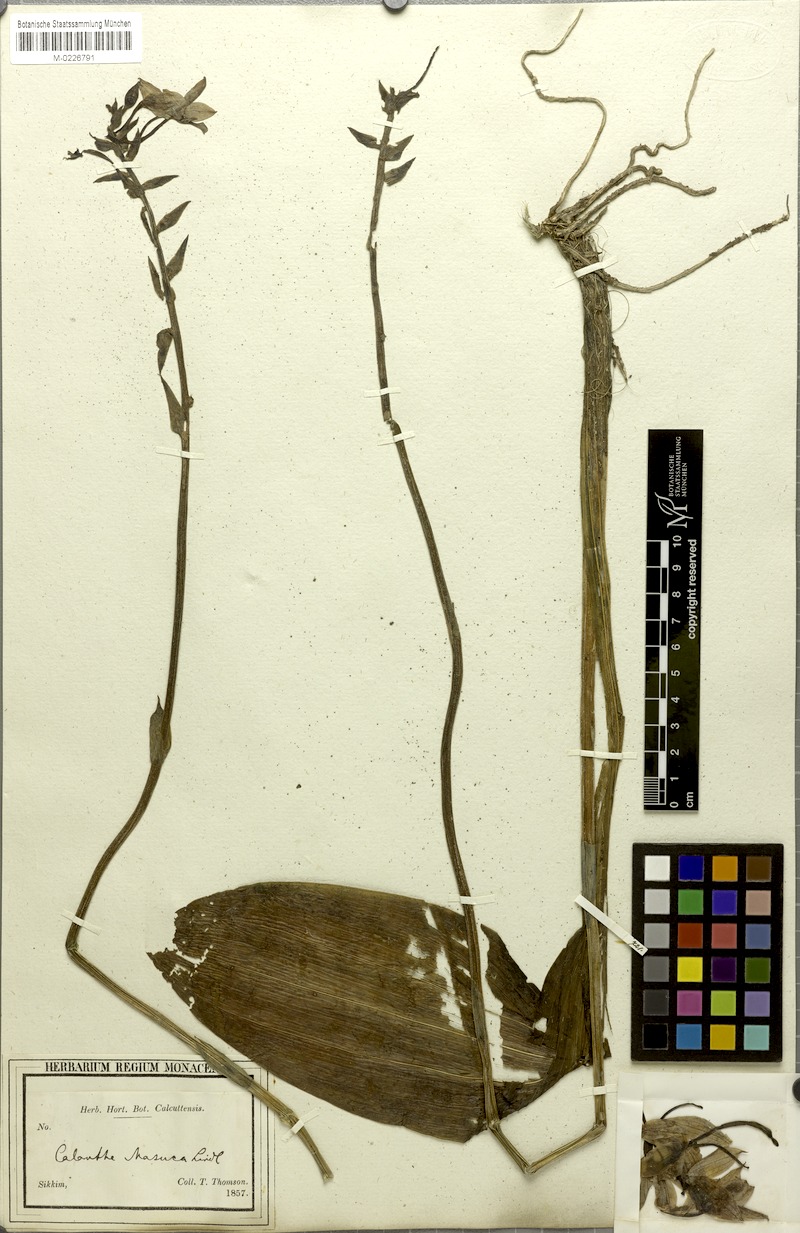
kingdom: Plantae
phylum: Tracheophyta
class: Liliopsida
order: Asparagales
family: Orchidaceae
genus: Calanthe
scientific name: Calanthe herbacea
